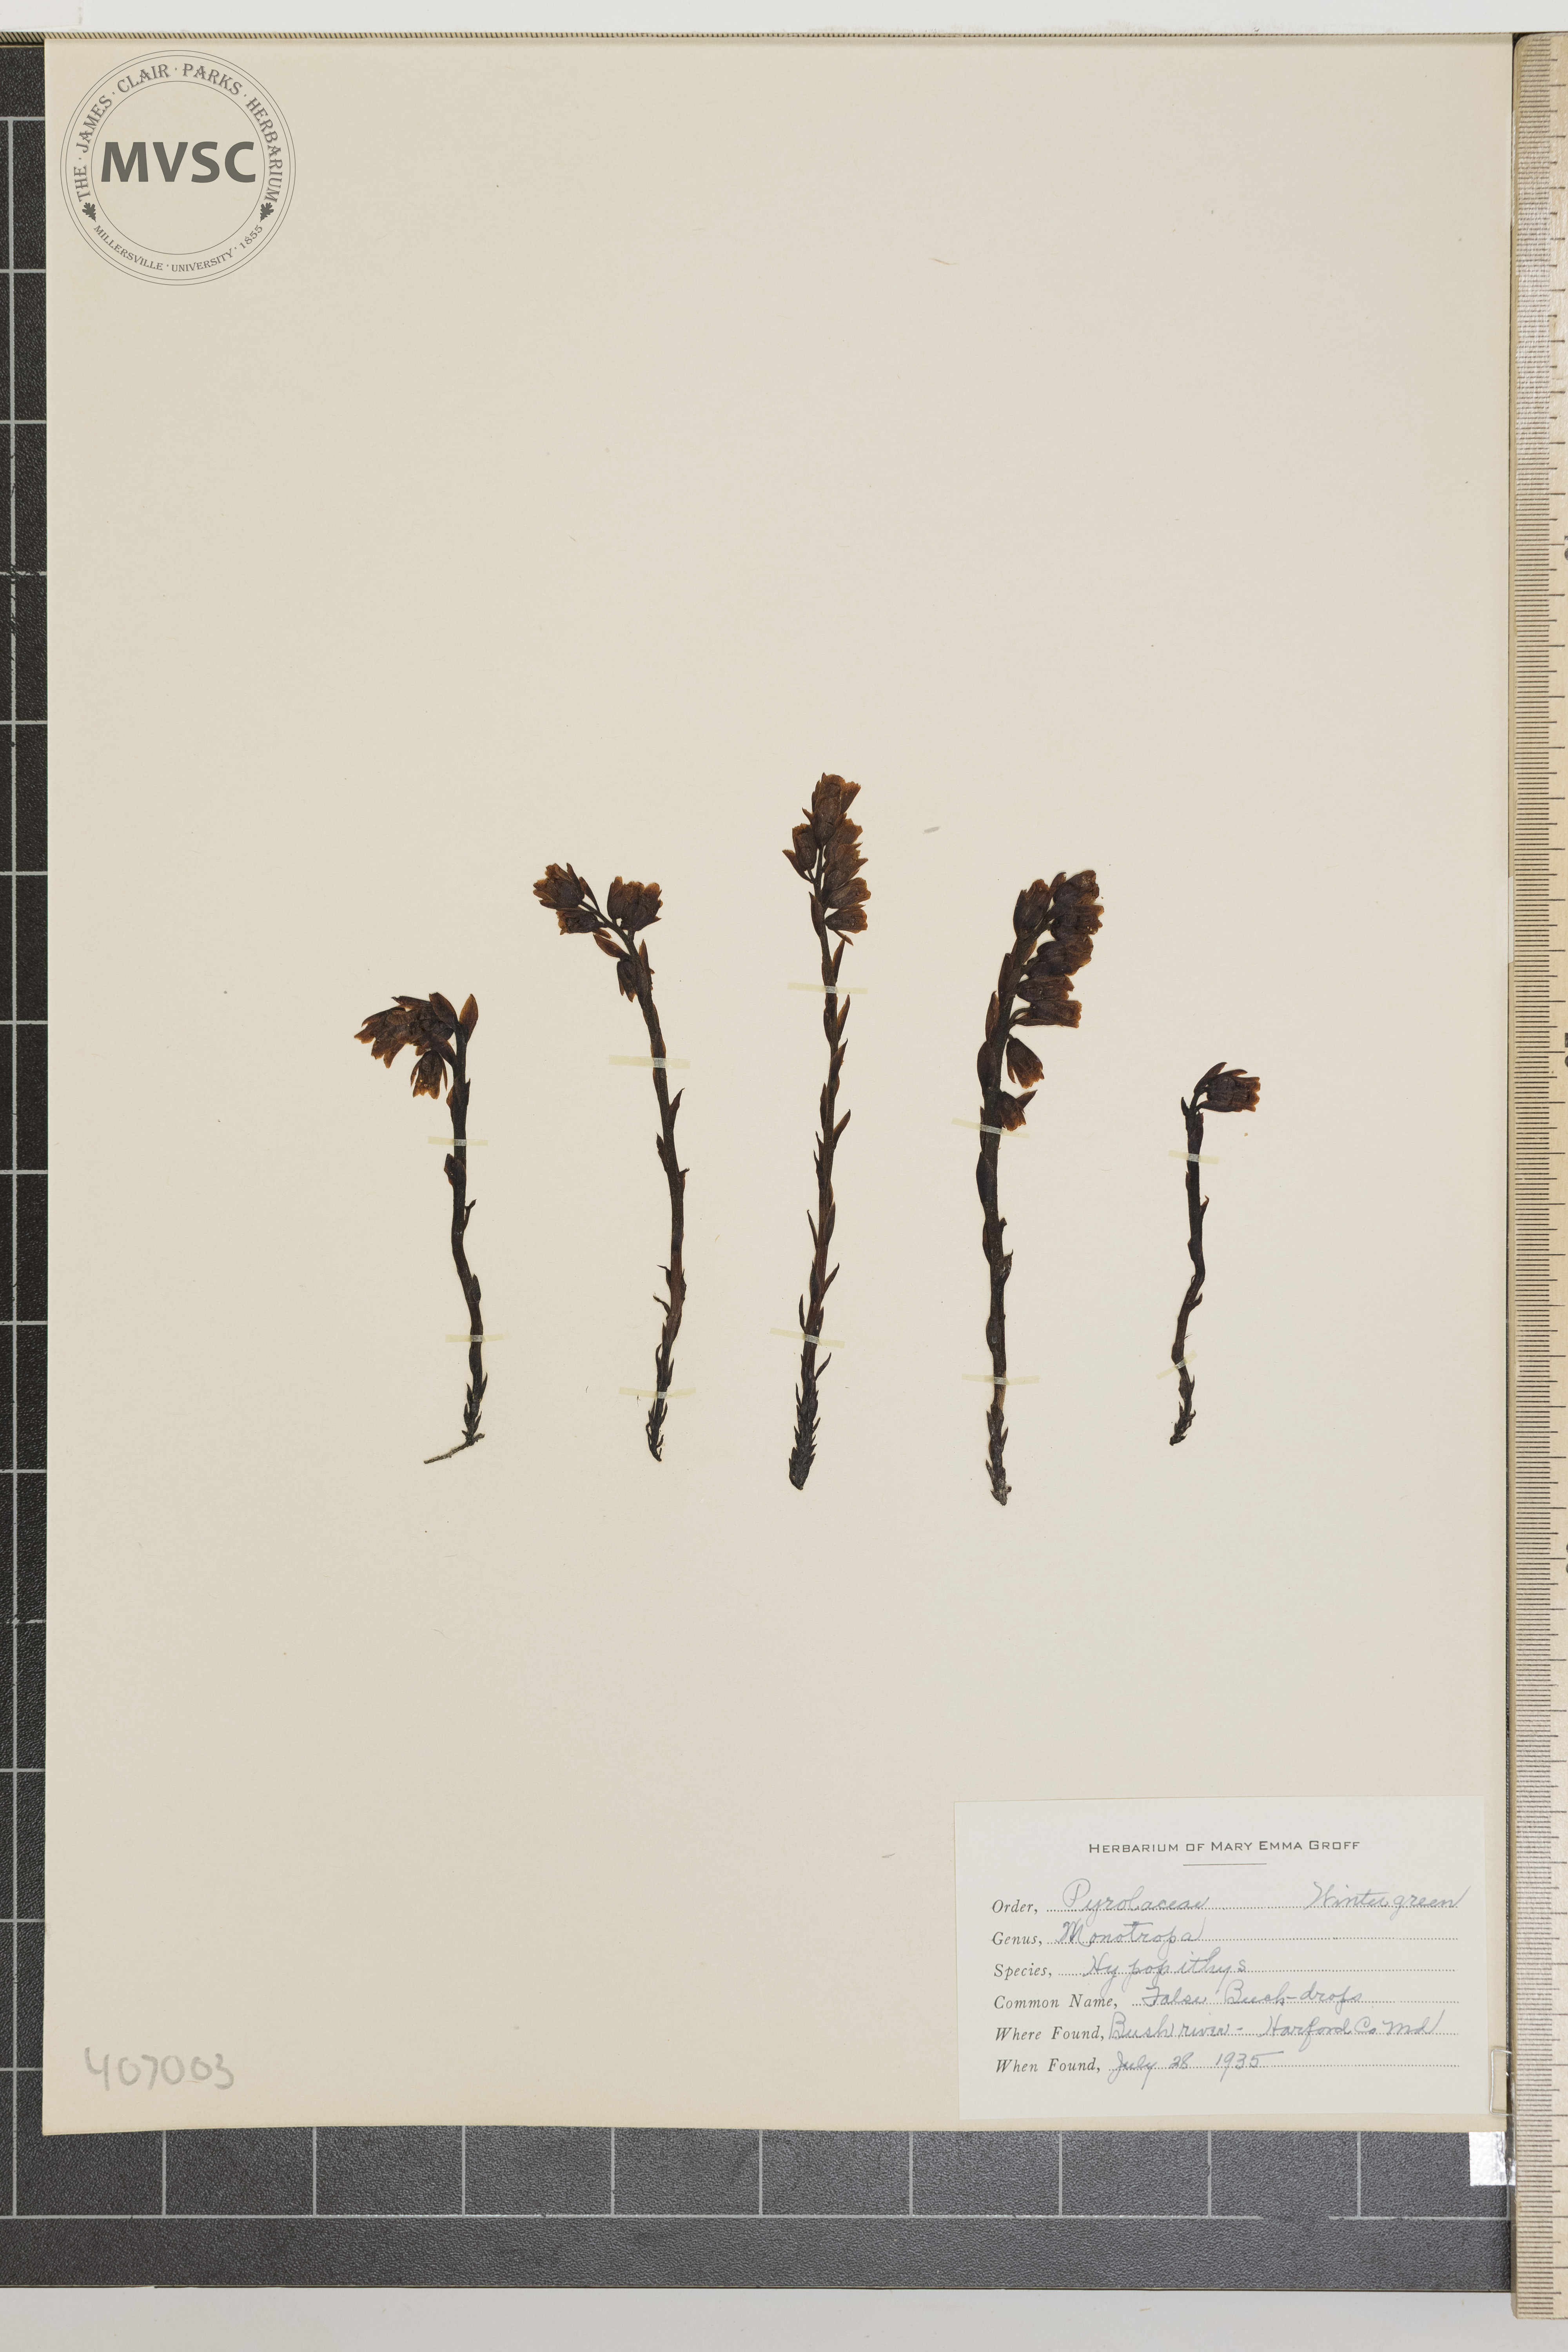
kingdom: Plantae
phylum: Tracheophyta
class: Magnoliopsida
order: Ericales
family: Ericaceae
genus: Hypopitys
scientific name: Hypopitys monotropa
